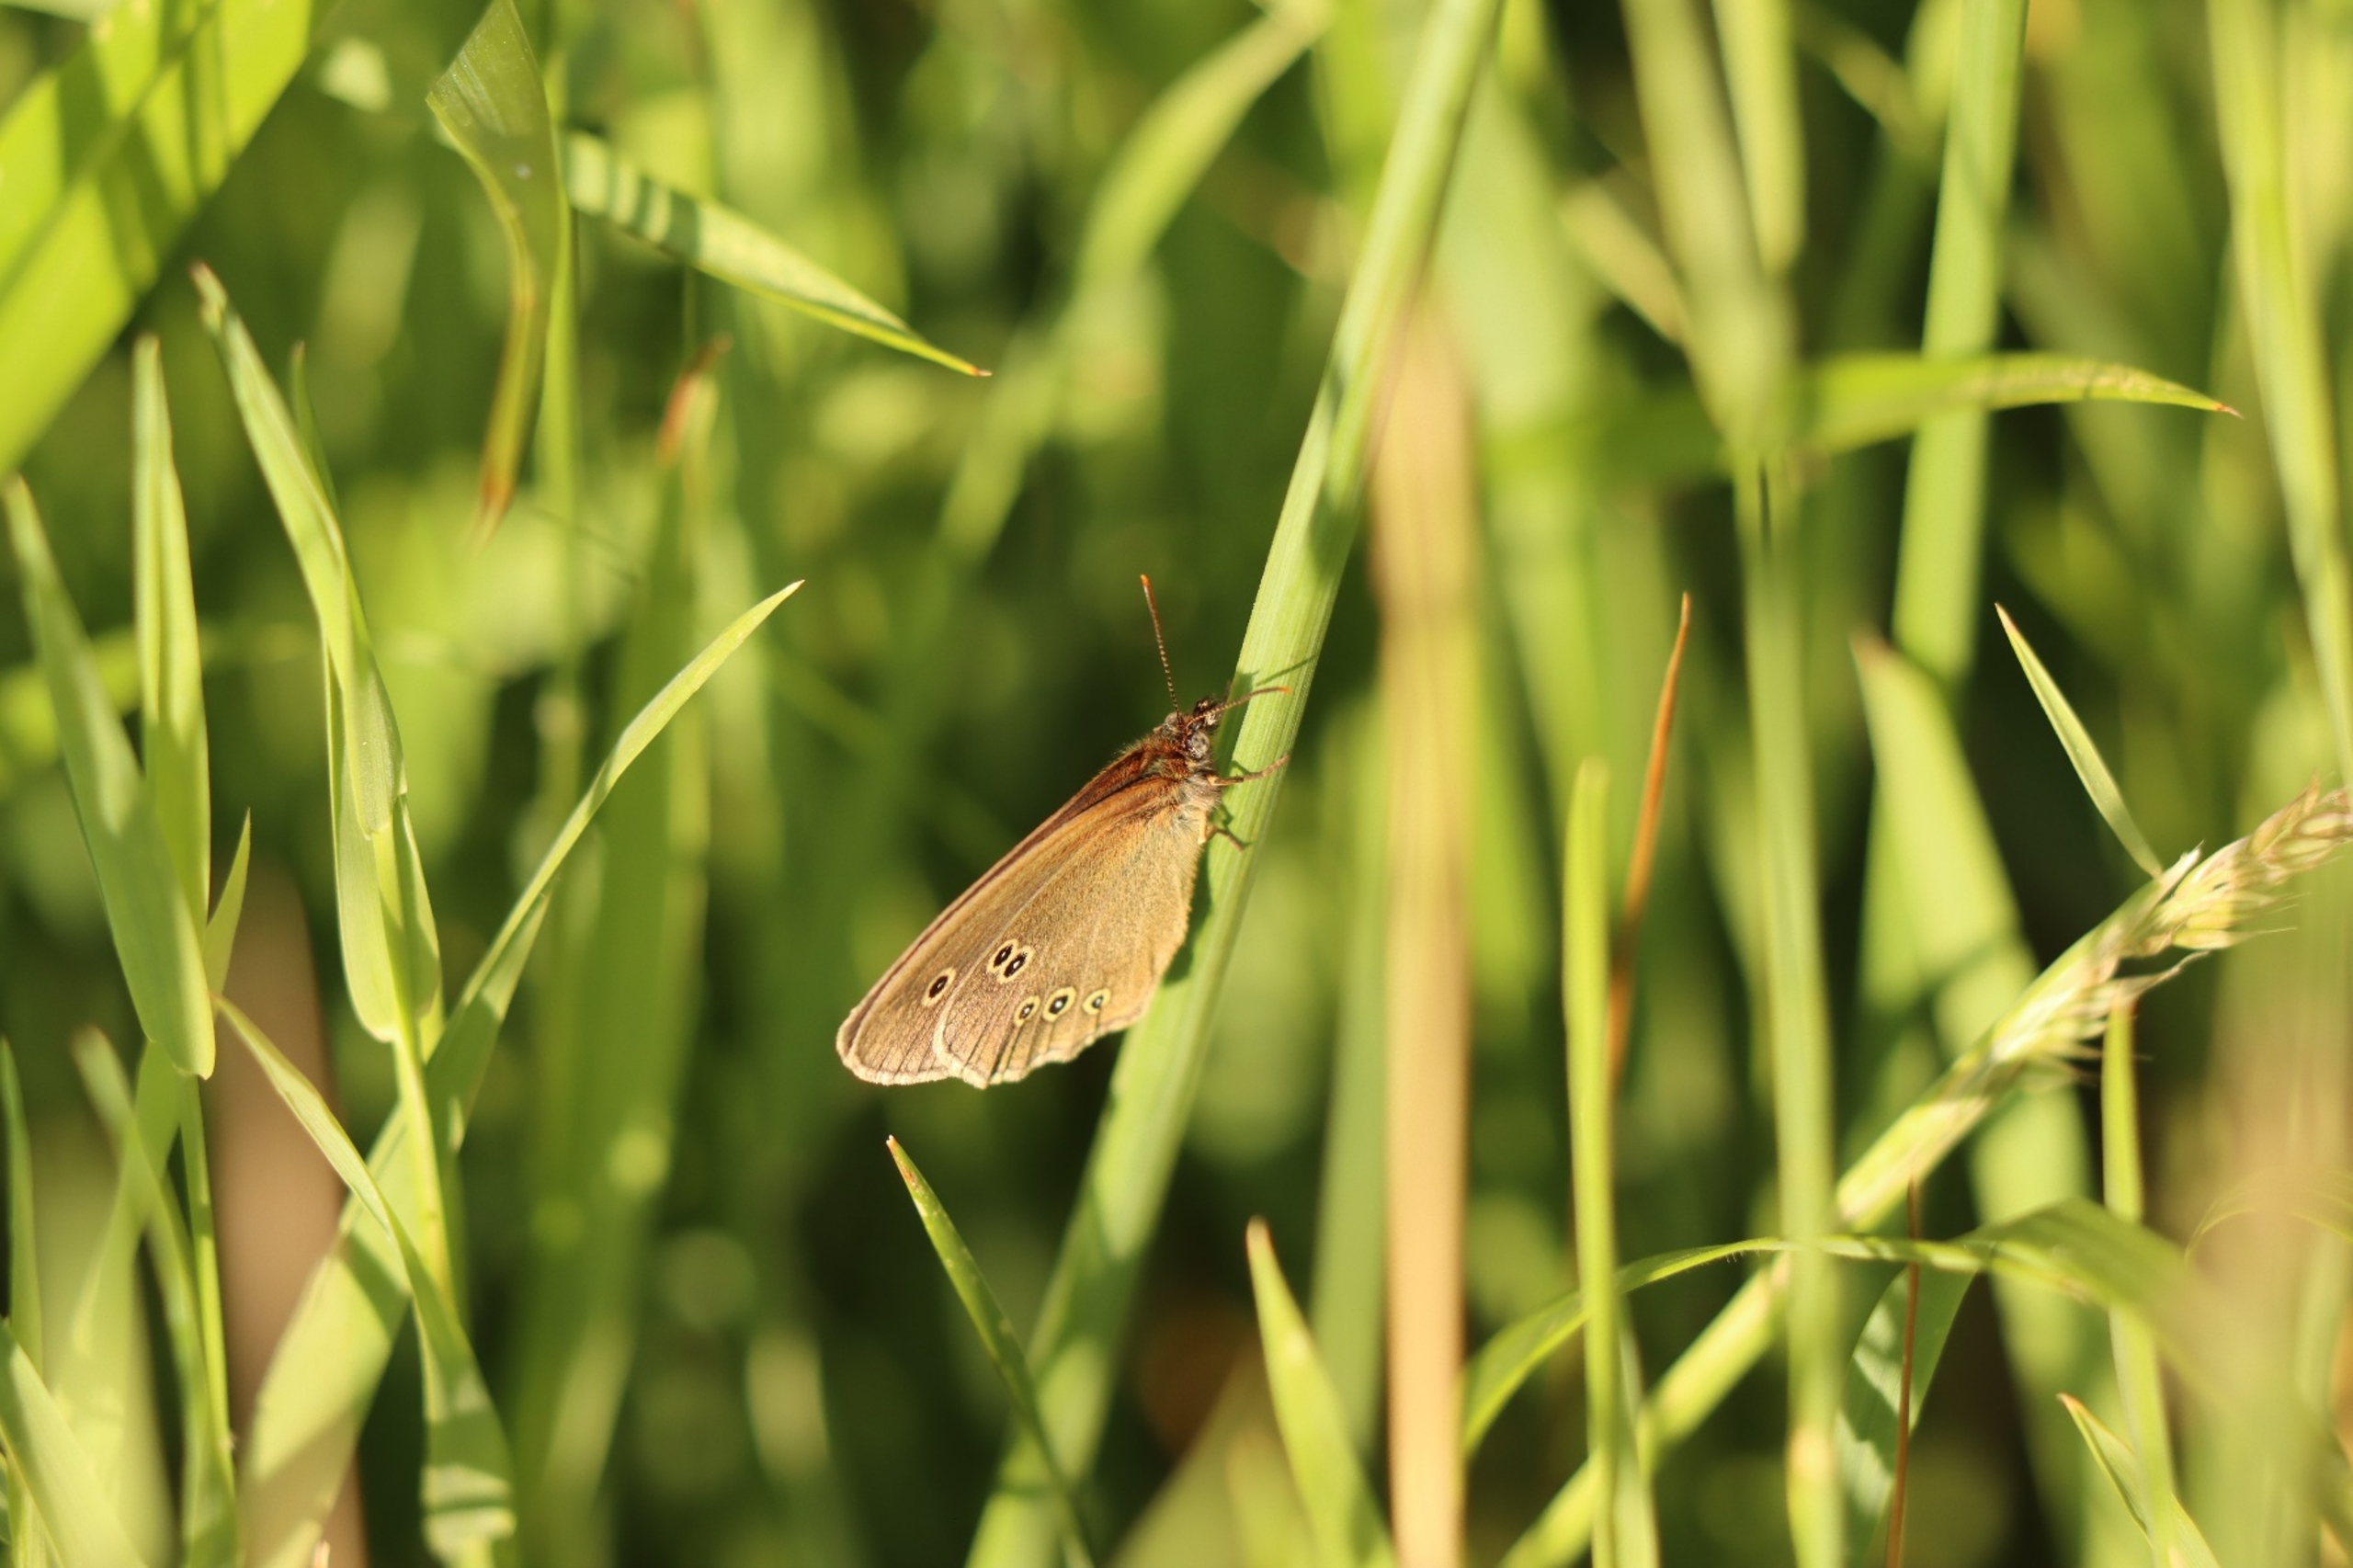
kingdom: Animalia
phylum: Arthropoda
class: Insecta
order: Lepidoptera
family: Nymphalidae
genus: Aphantopus
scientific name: Aphantopus hyperantus
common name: Engrandøje
